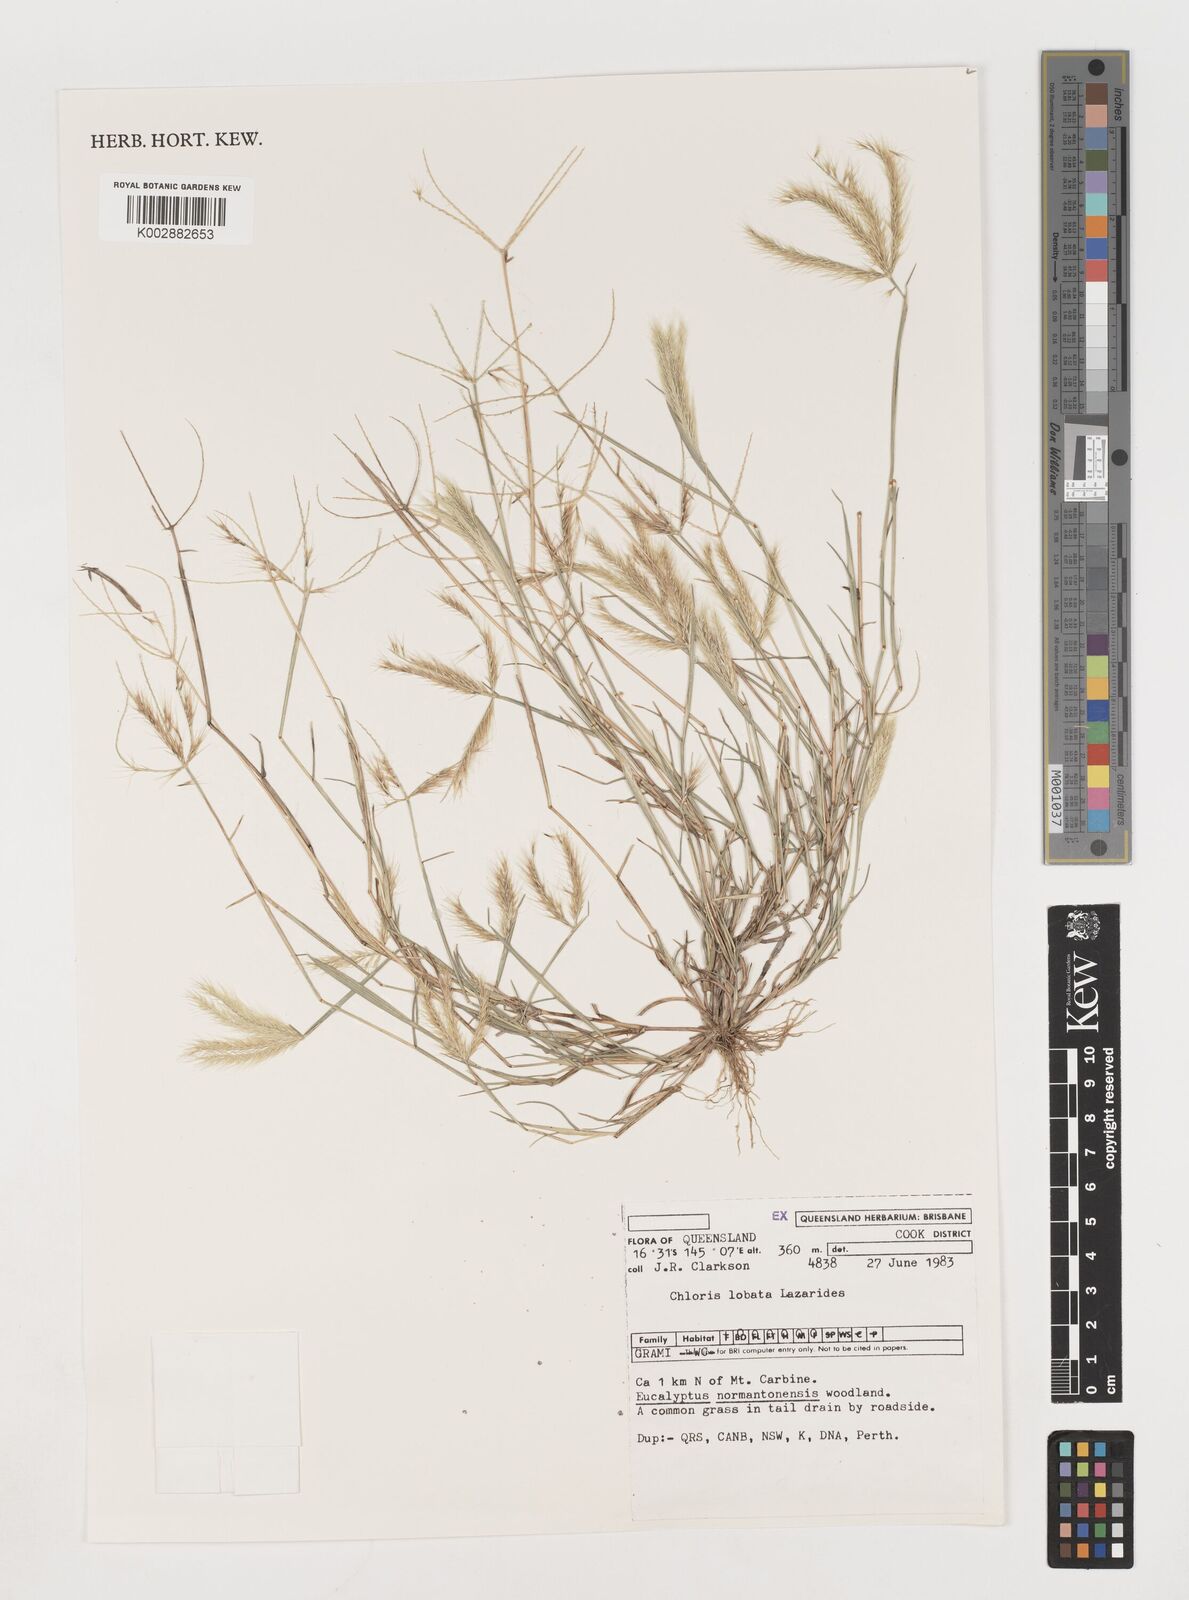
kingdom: Plantae
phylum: Tracheophyta
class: Liliopsida
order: Poales
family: Poaceae
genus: Chloris
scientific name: Chloris lobata
